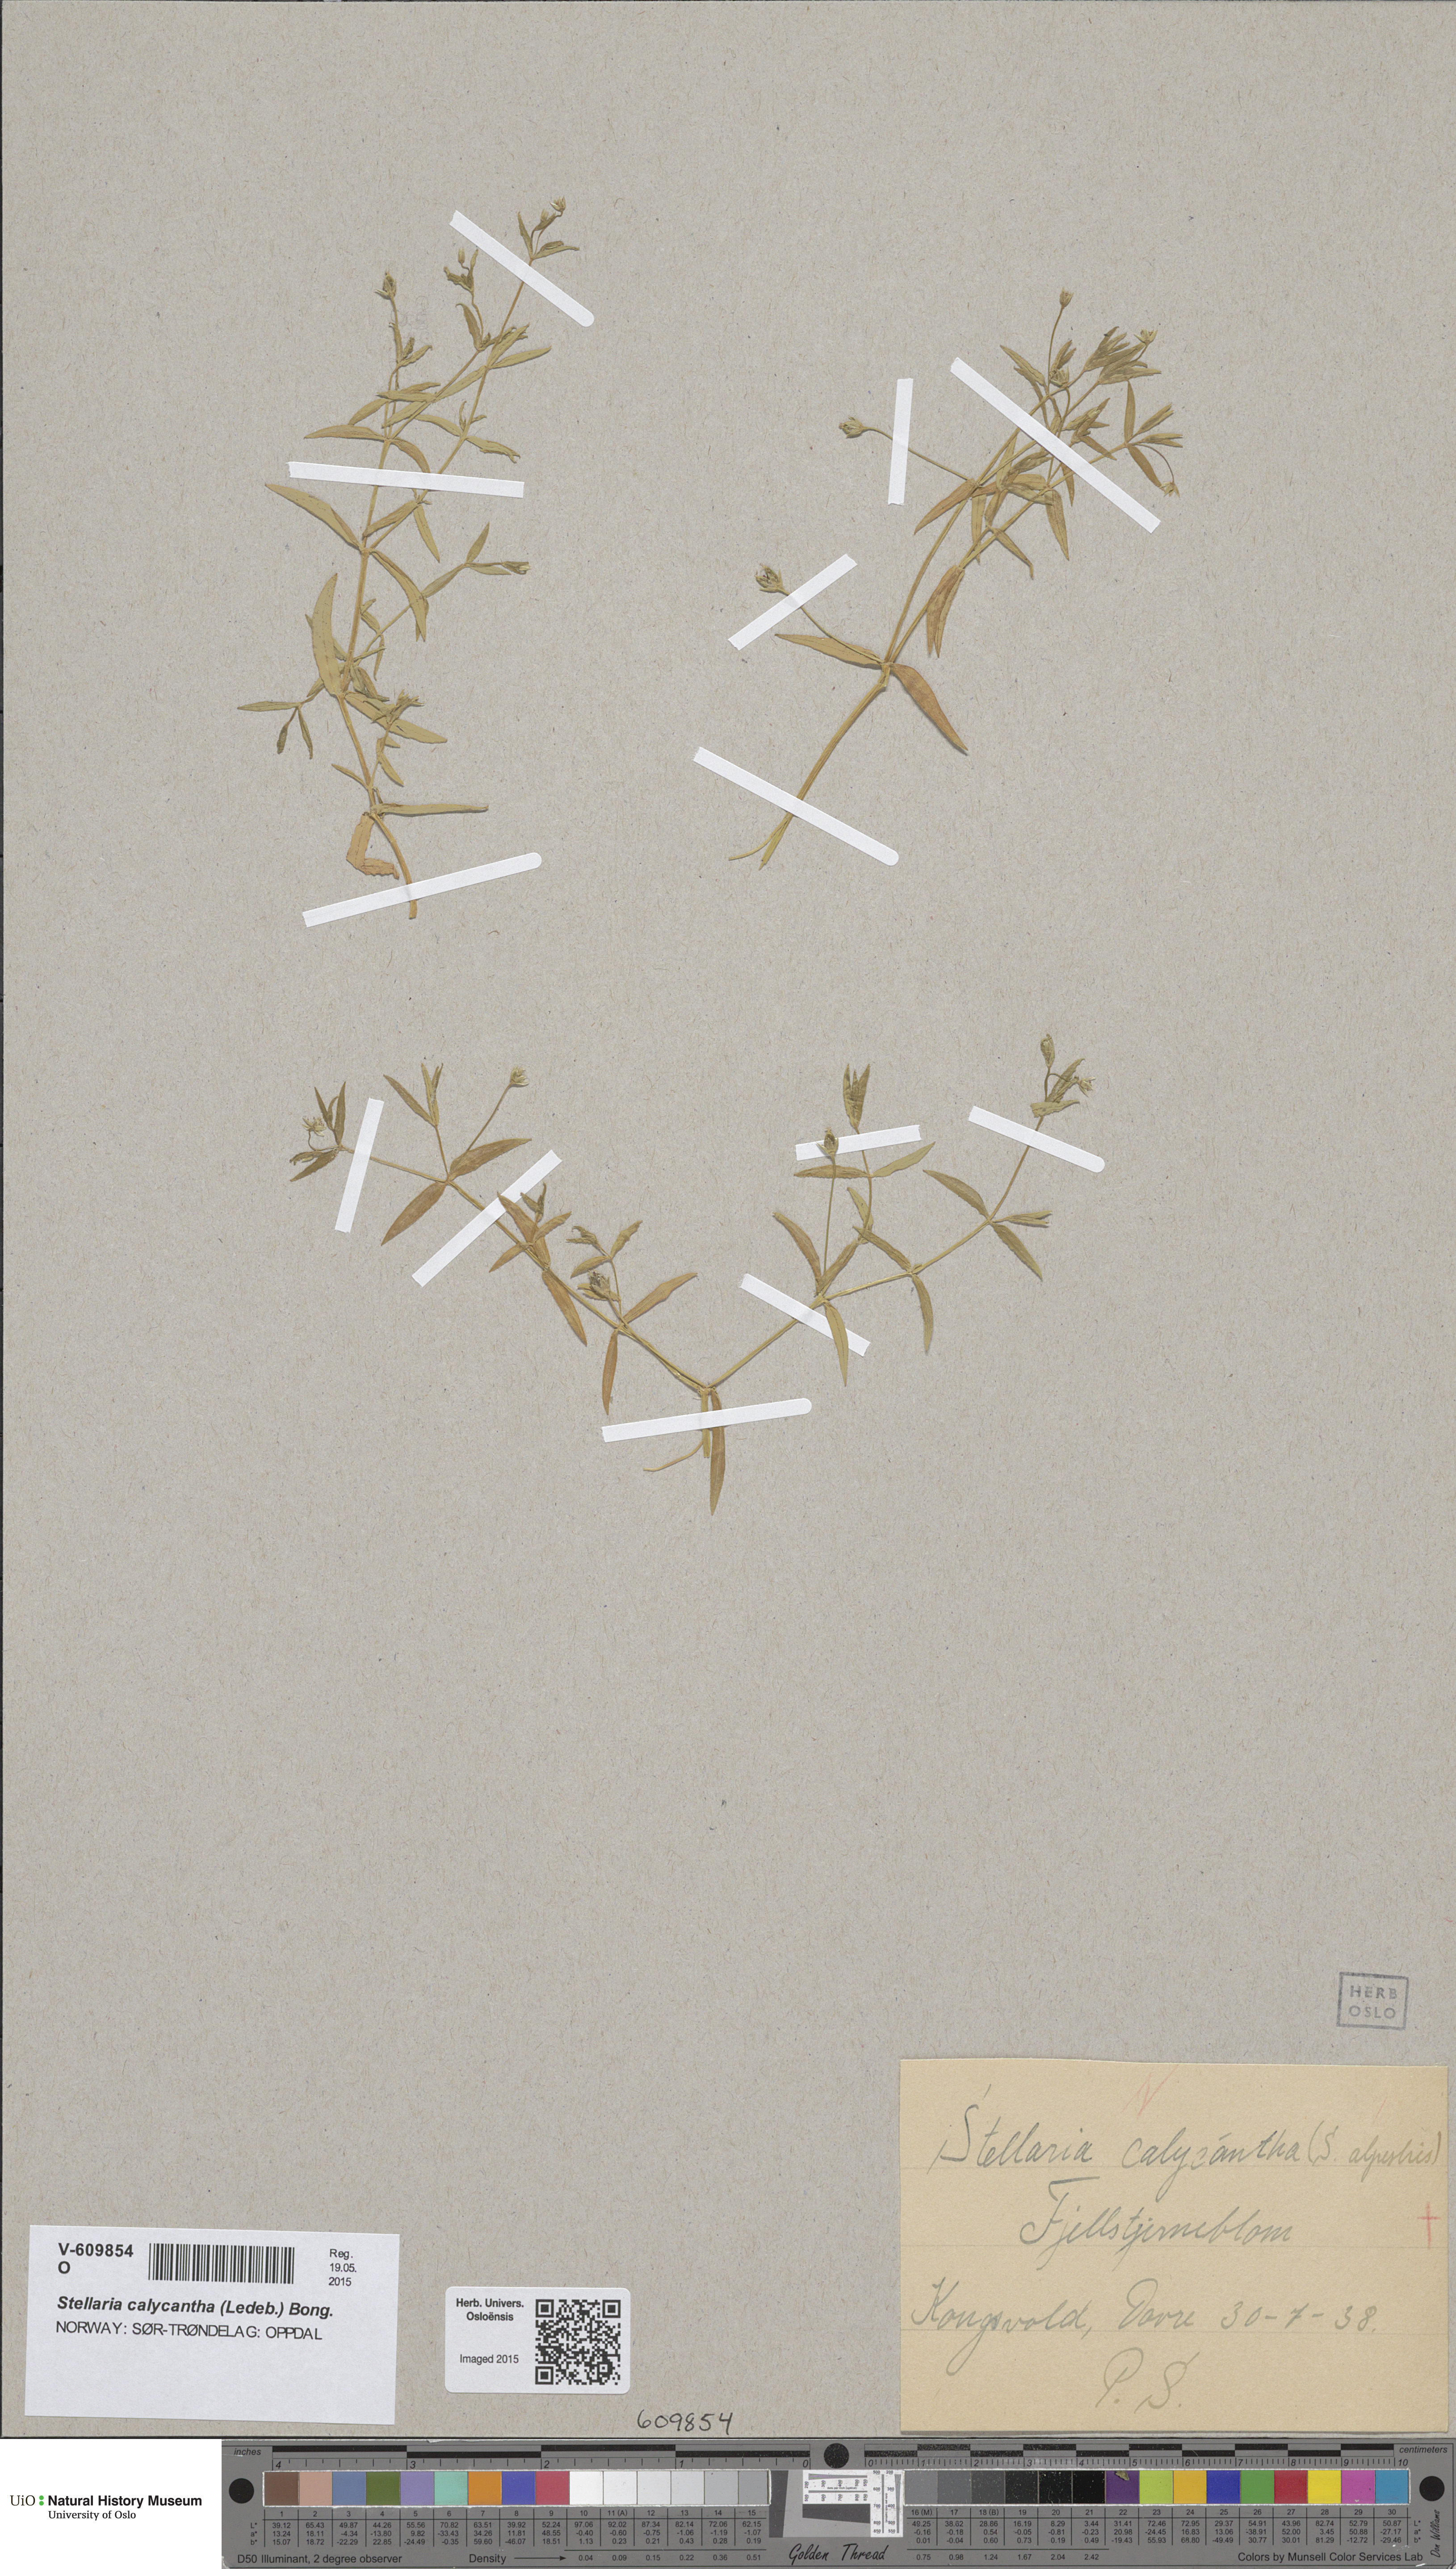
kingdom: Plantae
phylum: Tracheophyta
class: Magnoliopsida
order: Caryophyllales
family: Caryophyllaceae
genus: Stellaria
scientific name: Stellaria borealis
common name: Boreal starwort
